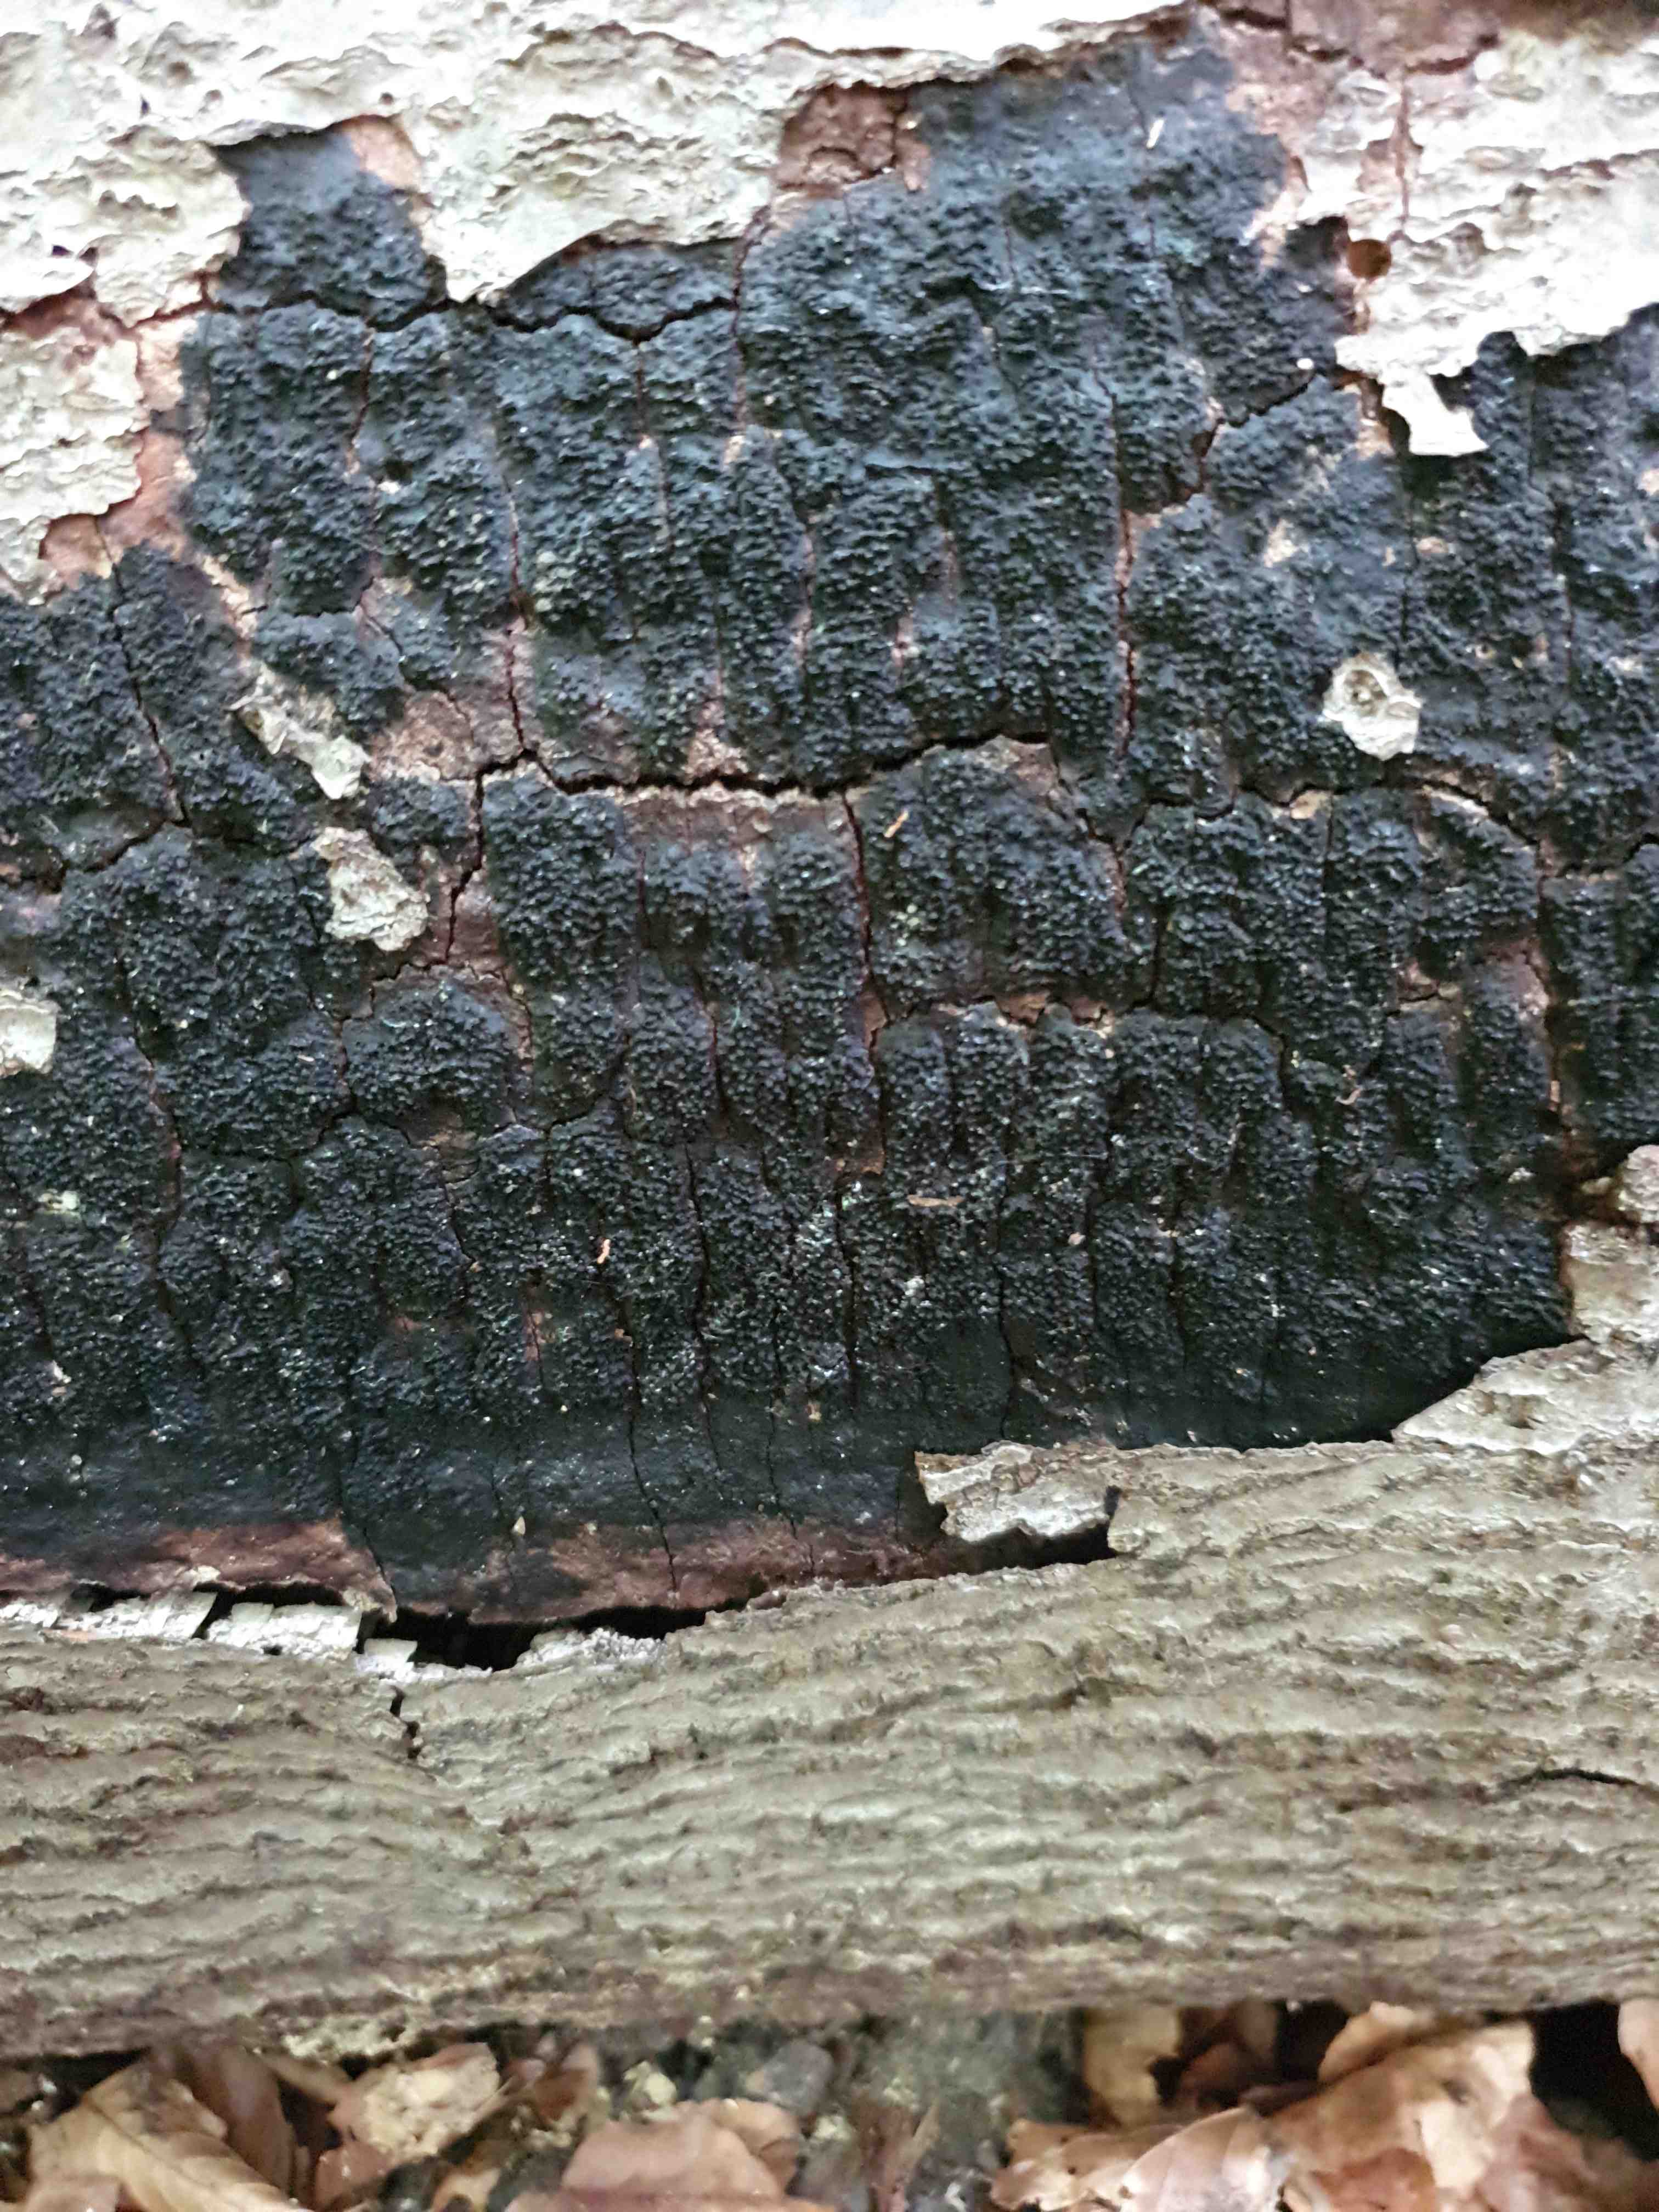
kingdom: Fungi
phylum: Ascomycota
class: Sordariomycetes
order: Xylariales
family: Diatrypaceae
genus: Eutypa
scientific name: Eutypa spinosa
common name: grov kulskorpe
